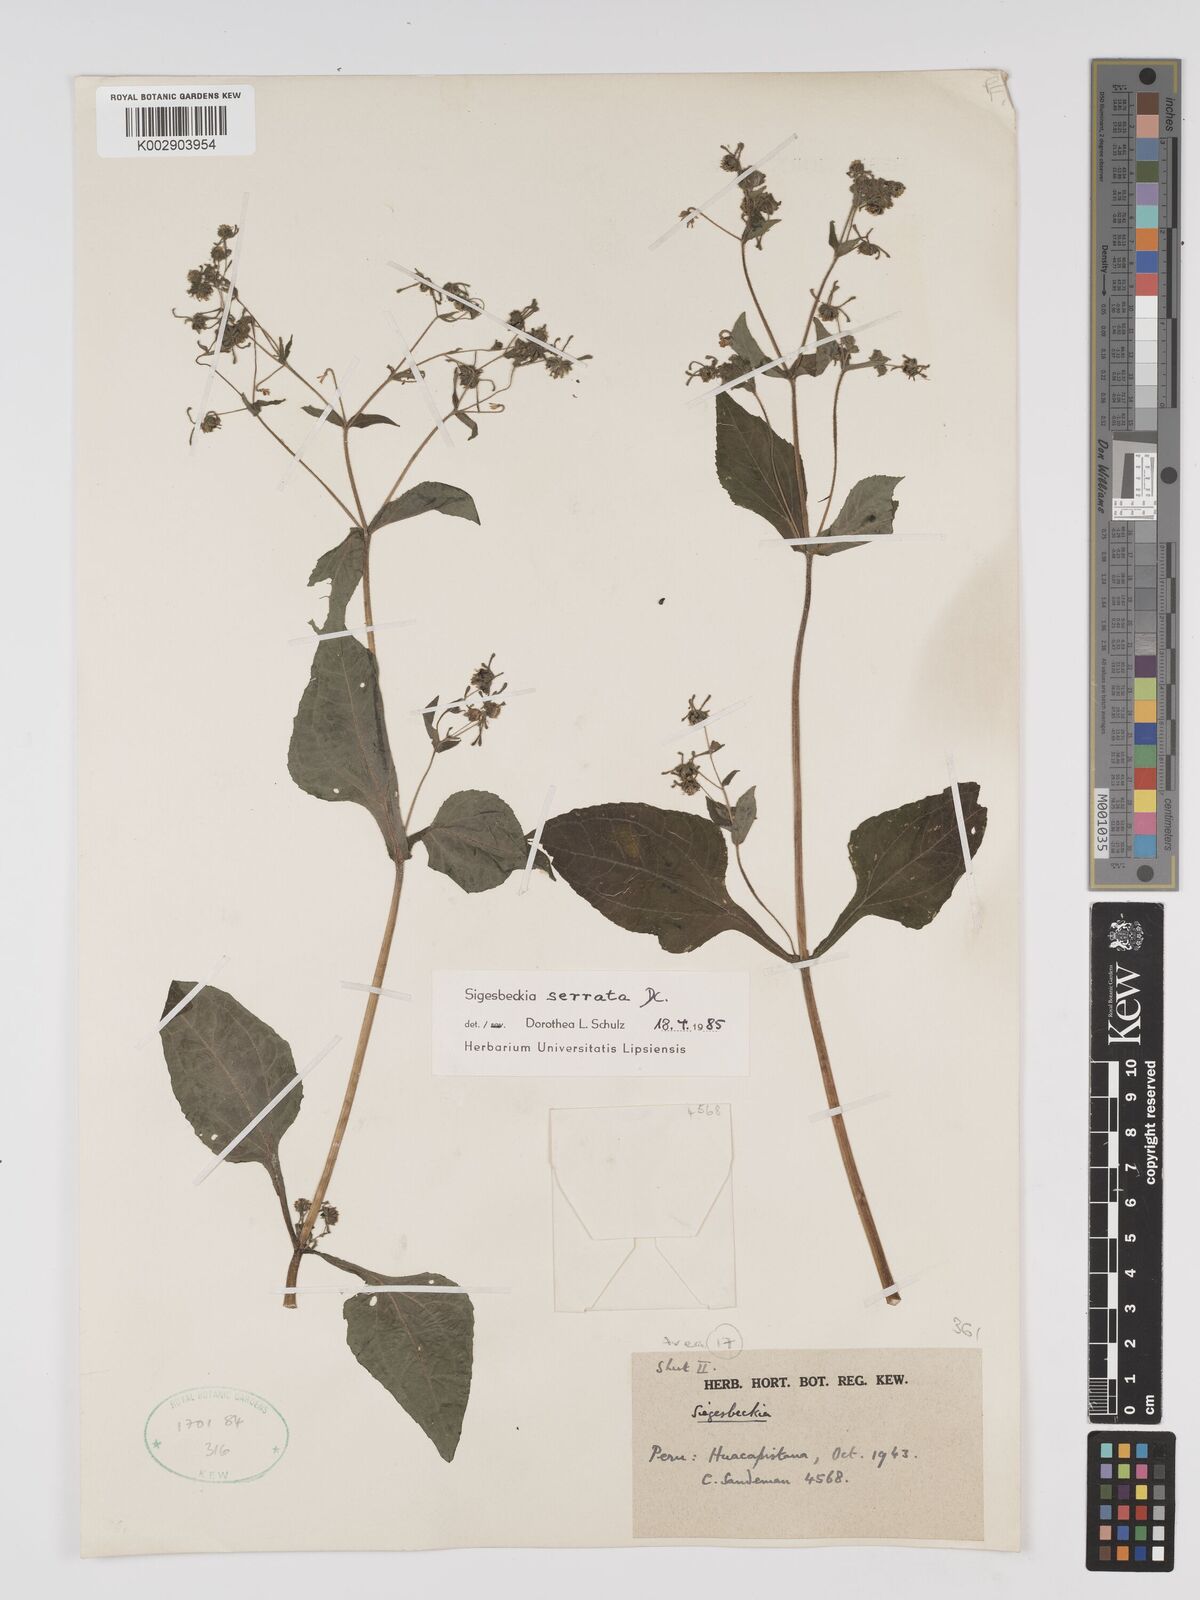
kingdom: Plantae
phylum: Tracheophyta
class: Magnoliopsida
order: Asterales
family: Asteraceae
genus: Sigesbeckia
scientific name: Sigesbeckia jorullensis
